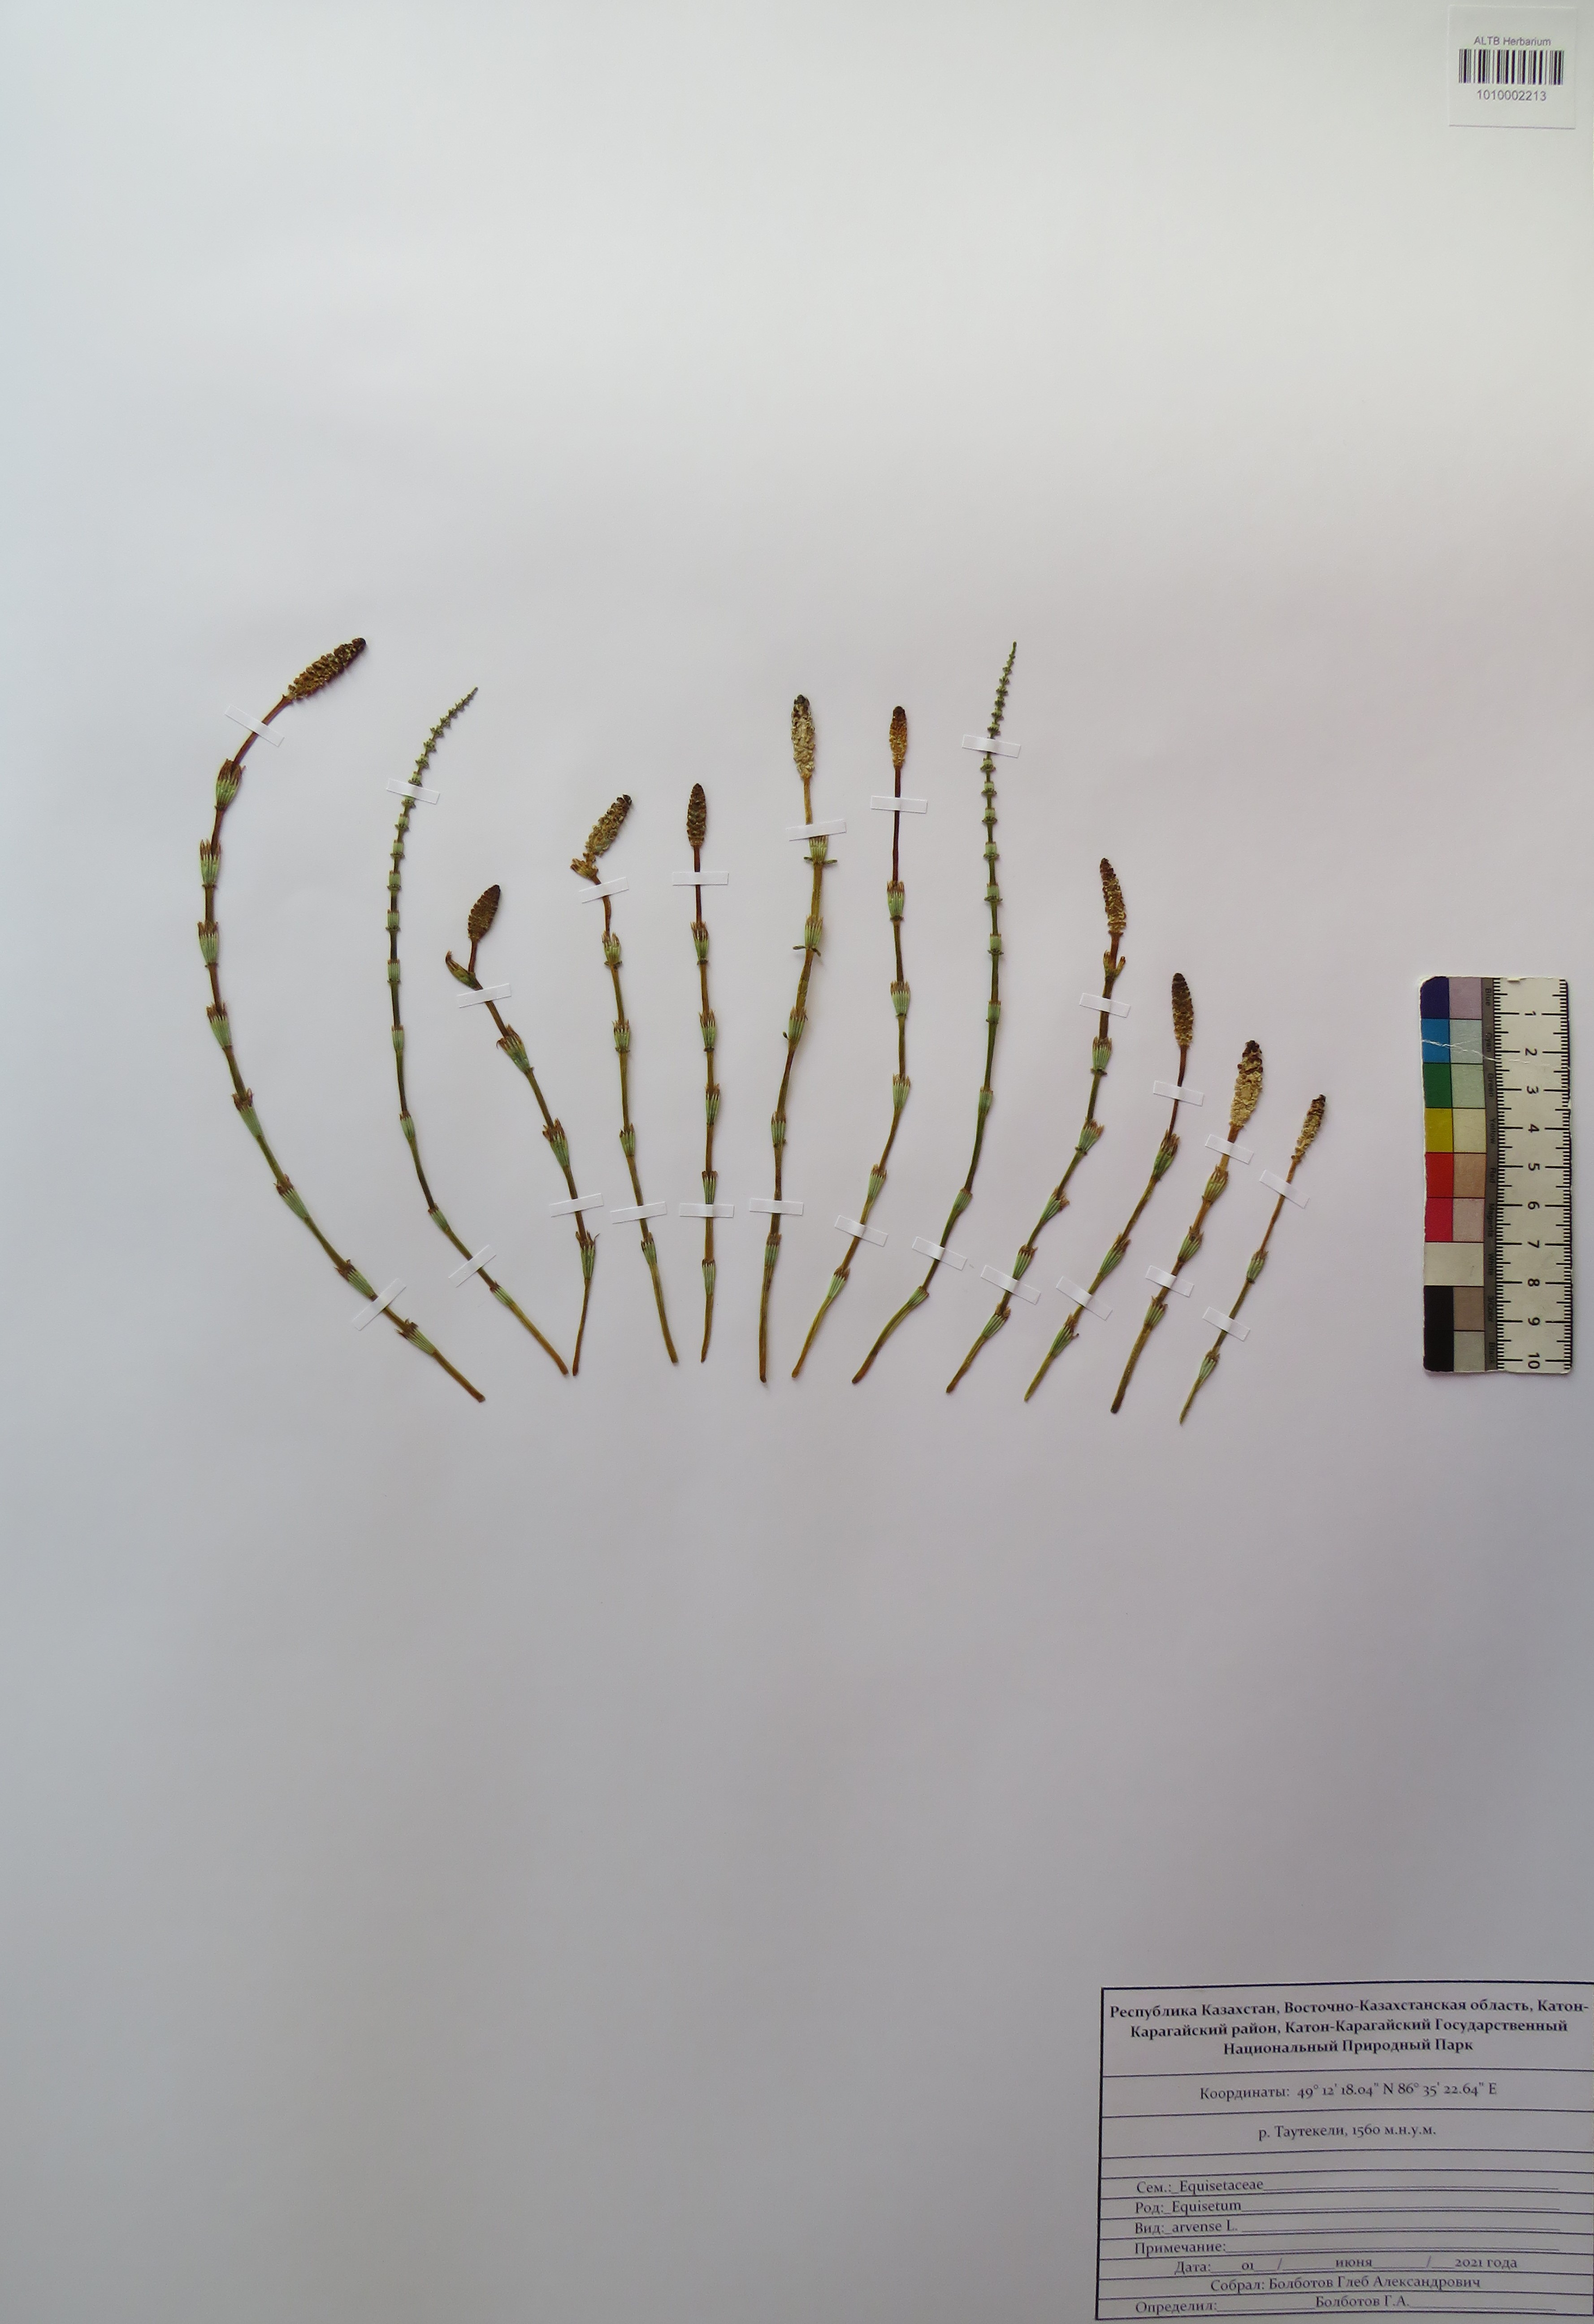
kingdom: Plantae
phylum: Tracheophyta
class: Polypodiopsida
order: Equisetales
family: Equisetaceae
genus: Equisetum
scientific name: Equisetum arvense
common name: Field horsetail
